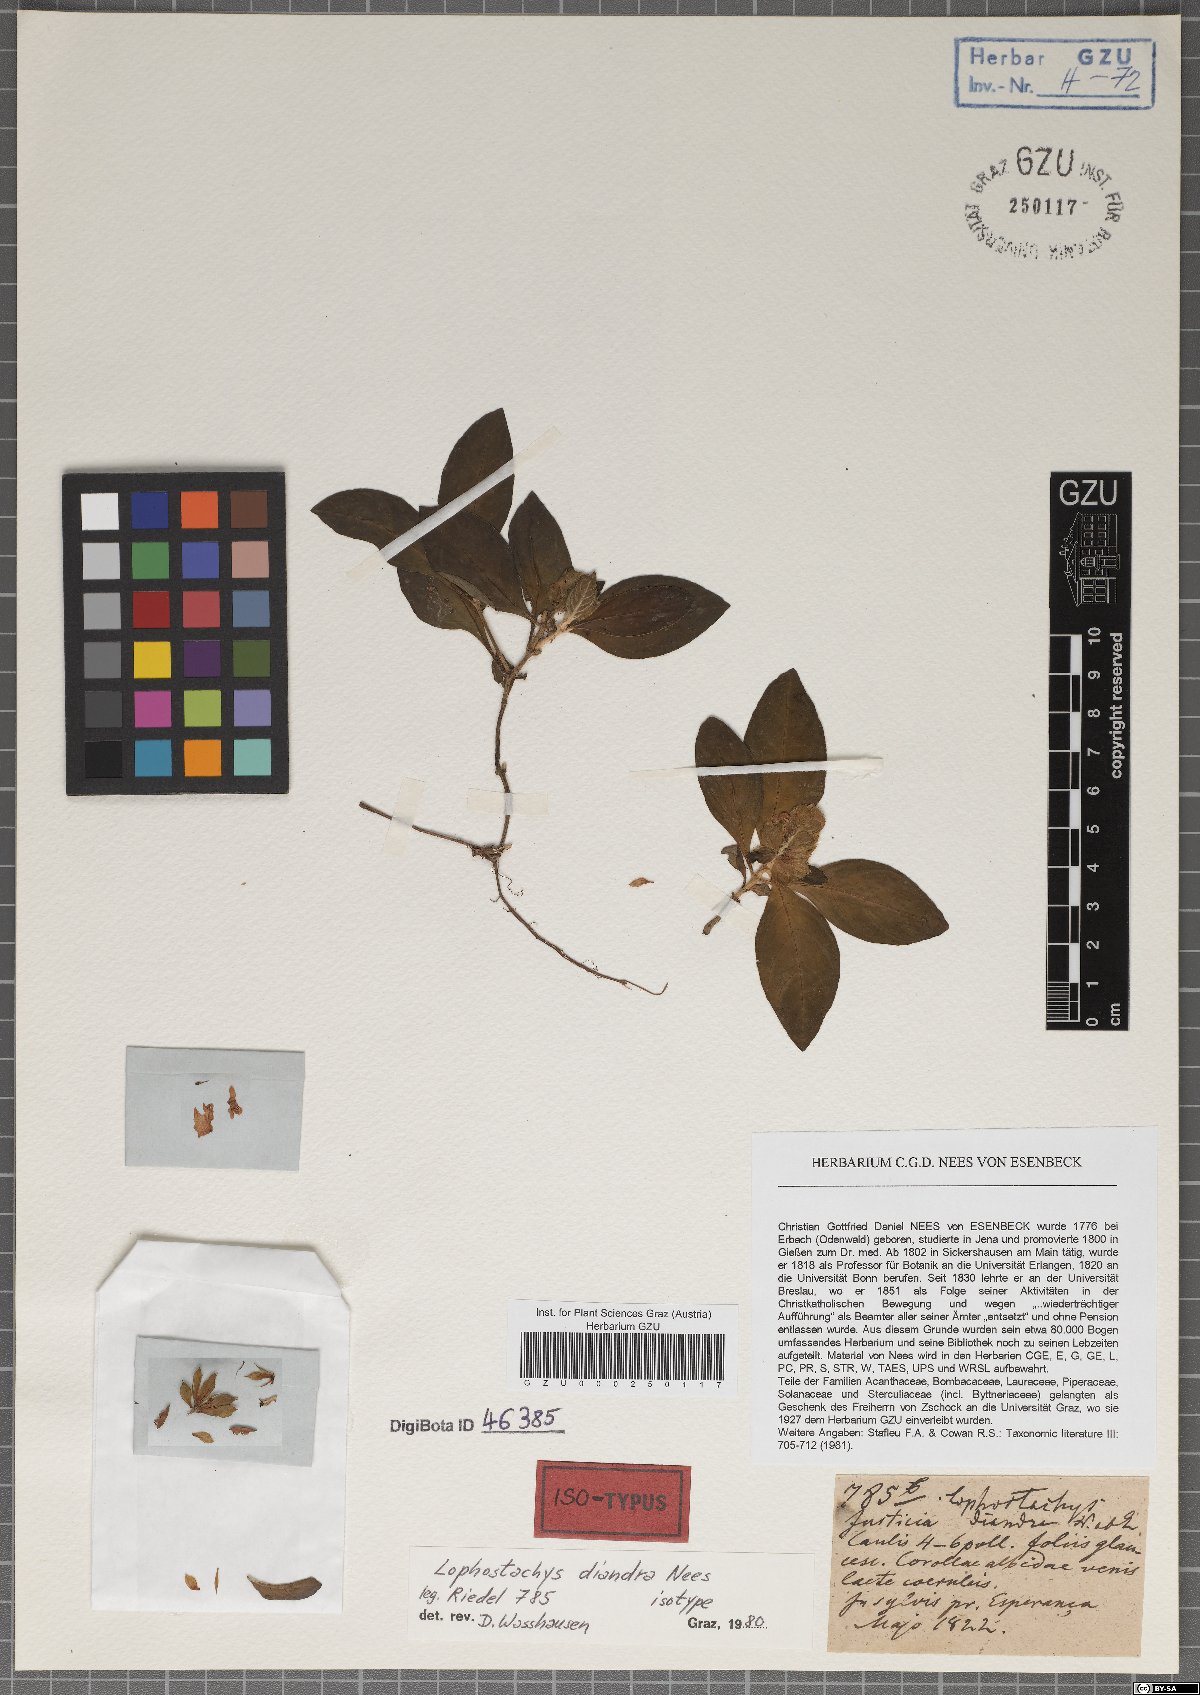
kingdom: Plantae
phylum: Tracheophyta
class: Magnoliopsida
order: Lamiales
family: Acanthaceae
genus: Lepidagathis
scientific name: Lepidagathis diandra
